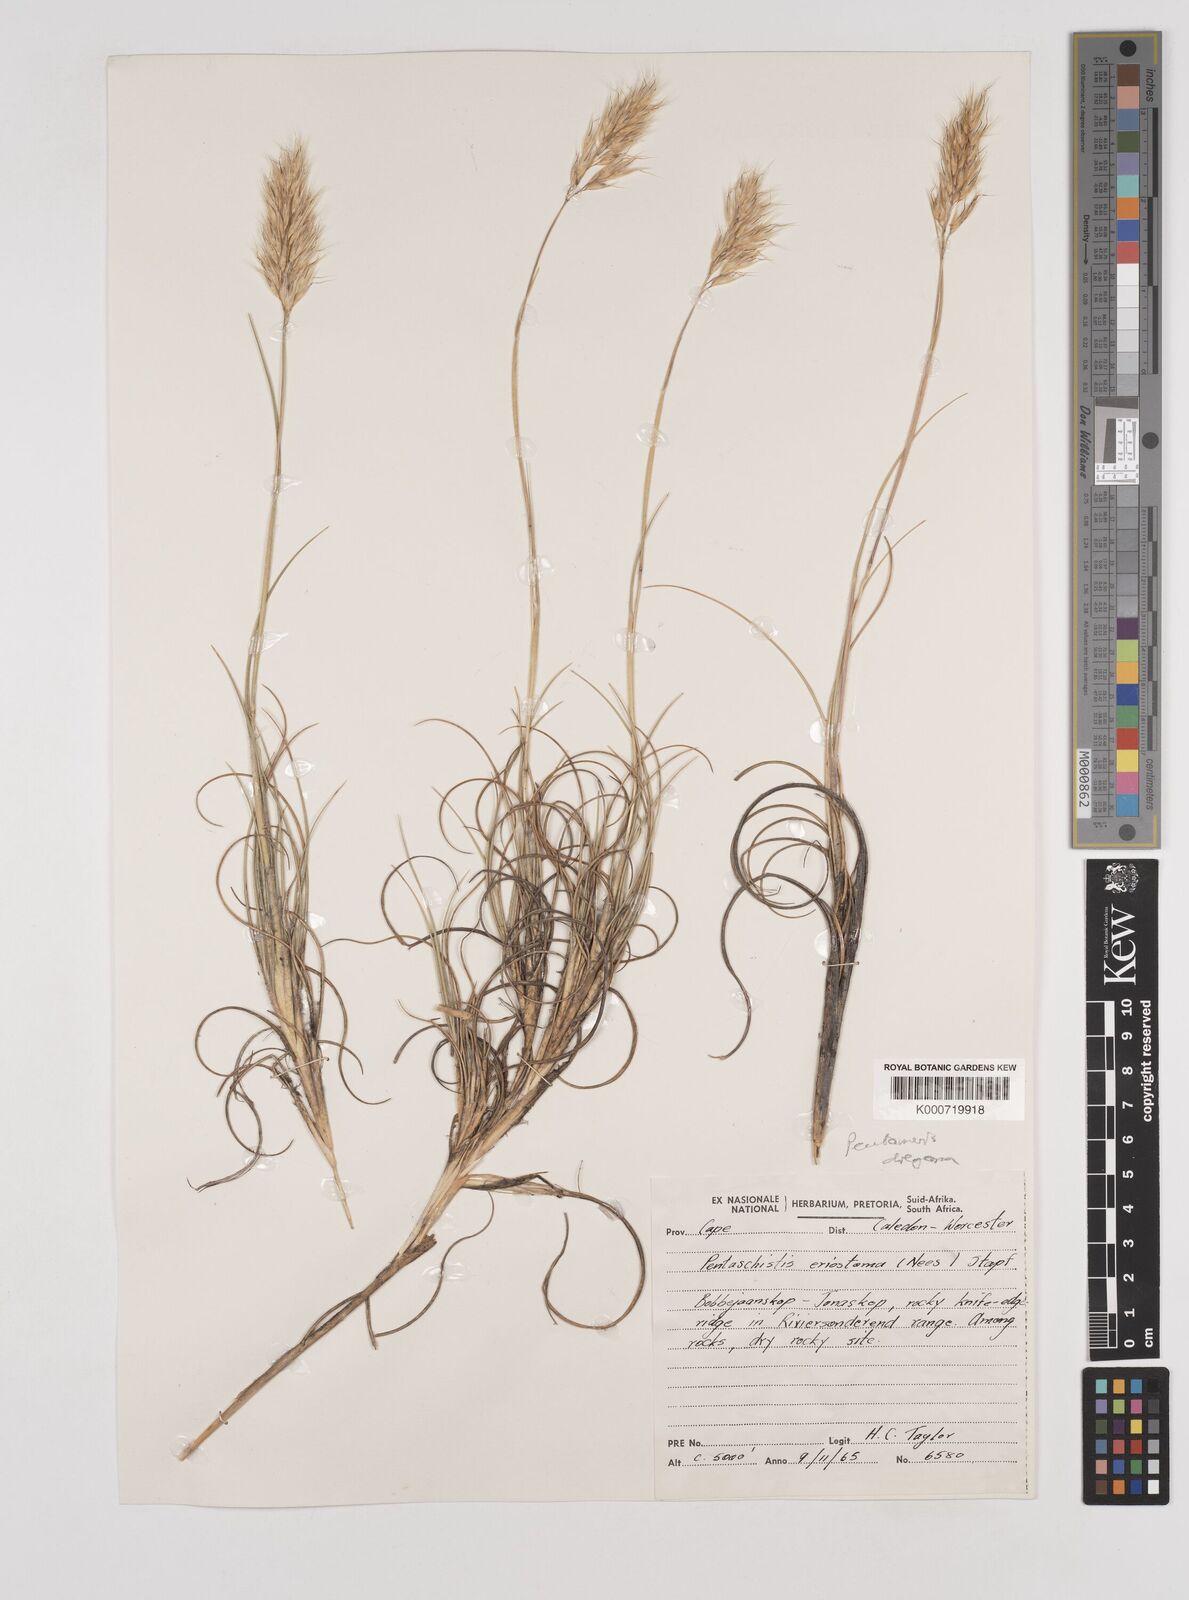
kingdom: Plantae
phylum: Tracheophyta
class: Liliopsida
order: Poales
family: Poaceae
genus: Pentameris
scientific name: Pentameris dregeana
